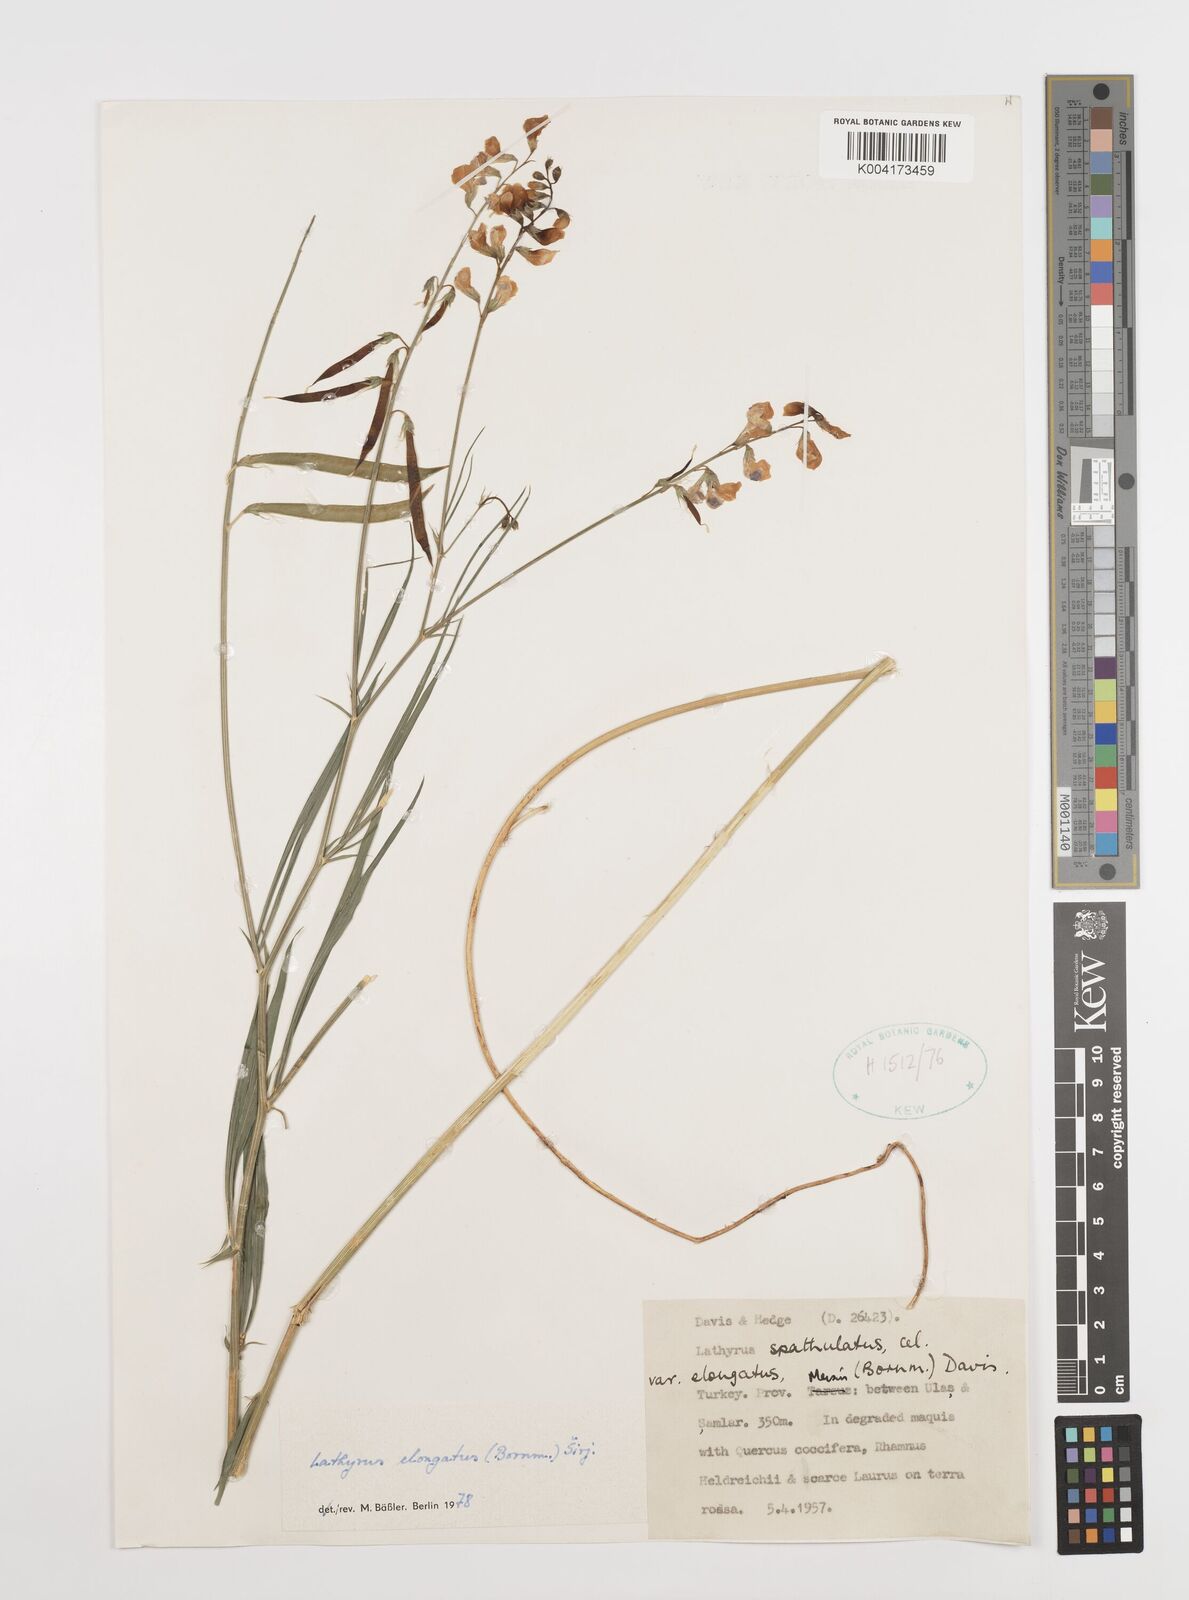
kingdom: Plantae
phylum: Tracheophyta
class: Magnoliopsida
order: Fabales
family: Fabaceae
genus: Lathyrus
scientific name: Lathyrus elongatus
